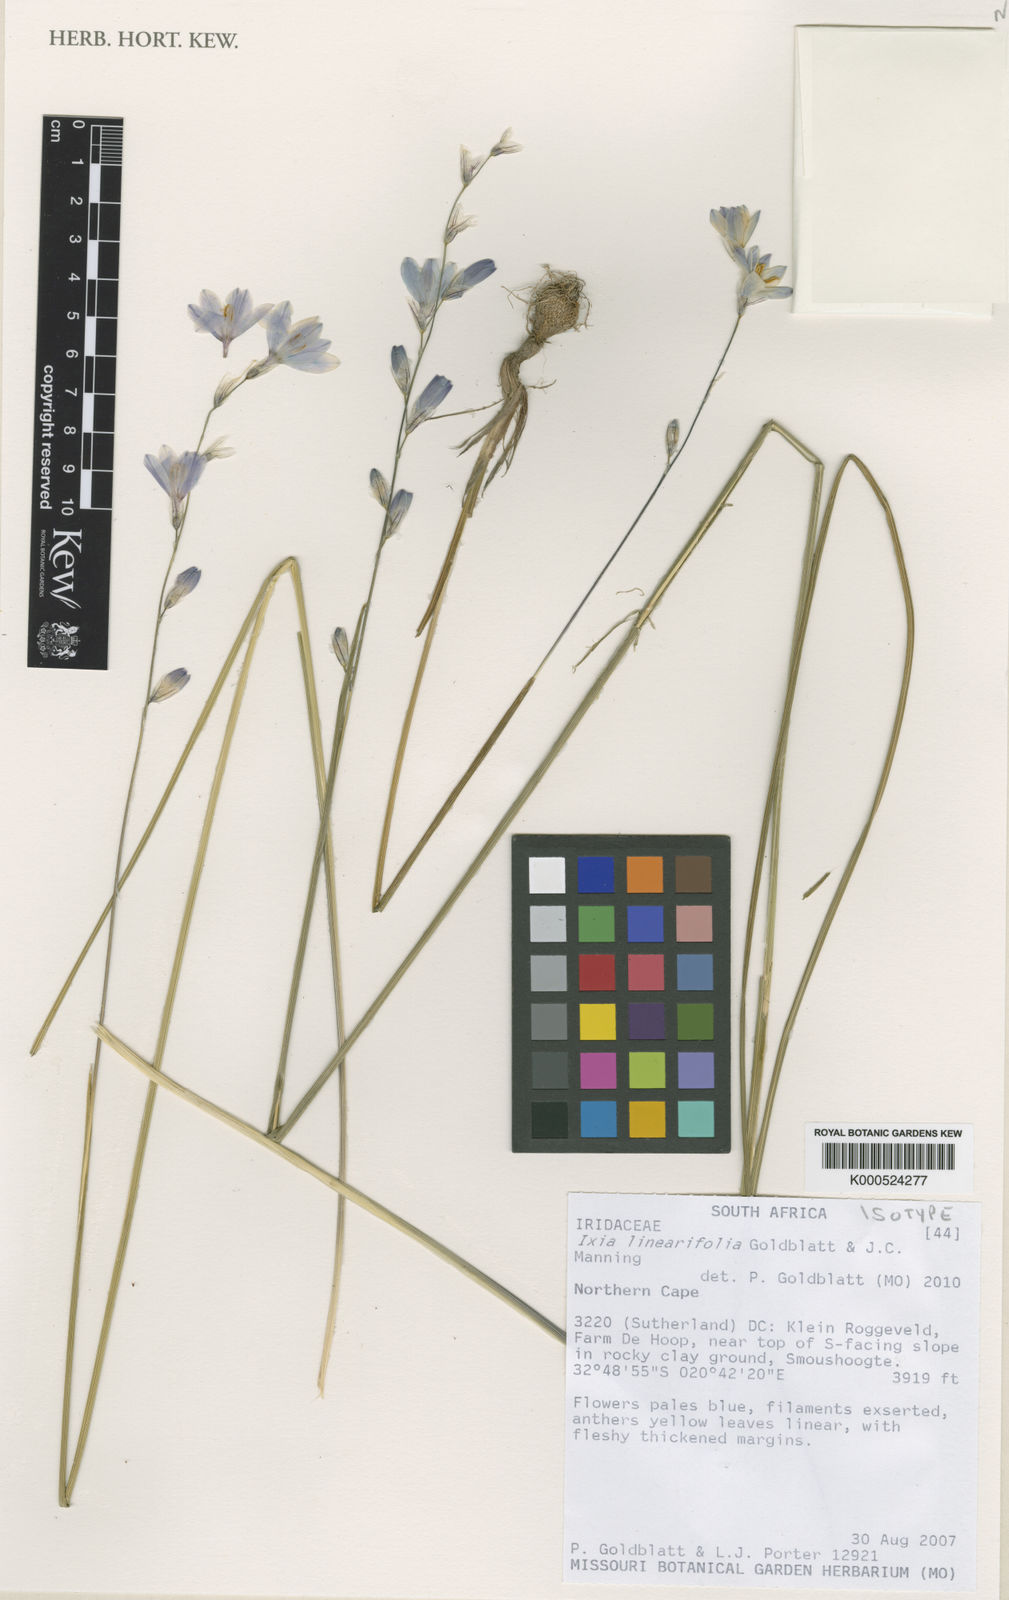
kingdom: Plantae
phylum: Tracheophyta
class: Liliopsida
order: Asparagales
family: Iridaceae
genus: Ixia
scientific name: Ixia linearifolia
